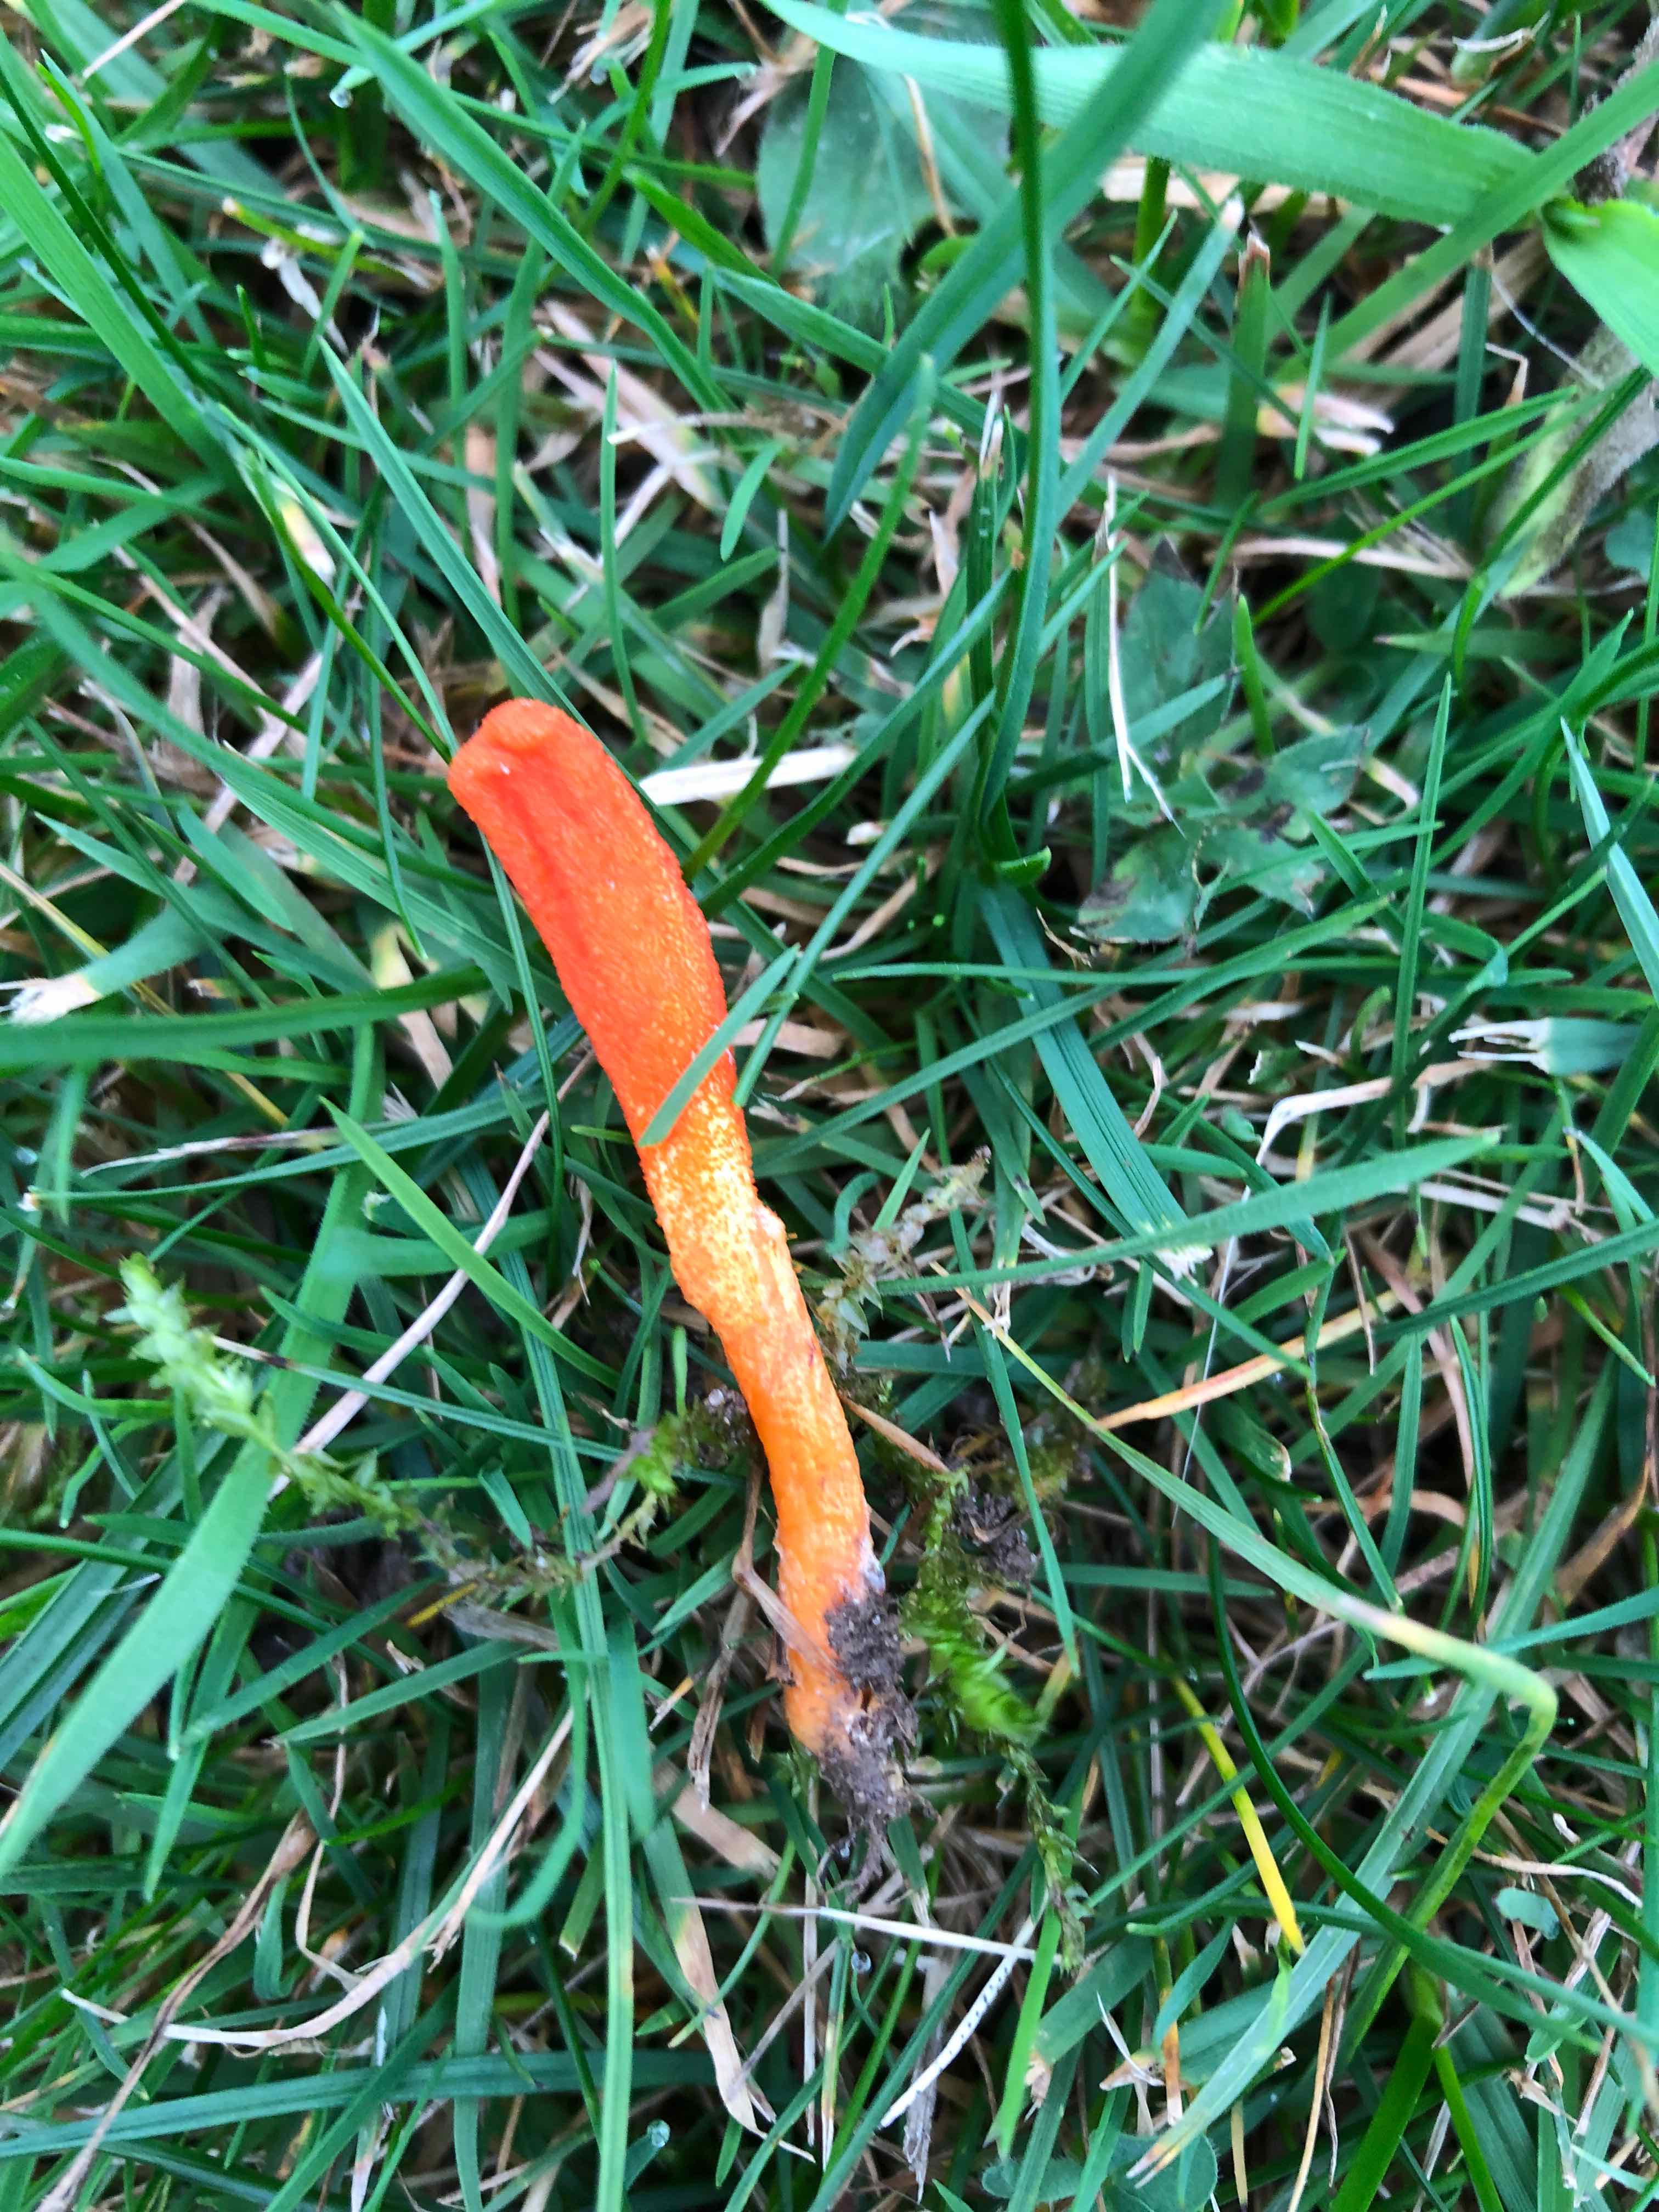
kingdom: Fungi
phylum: Ascomycota
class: Sordariomycetes
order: Hypocreales
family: Cordycipitaceae
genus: Cordyceps
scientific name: Cordyceps militaris
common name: puppe-snyltekølle
